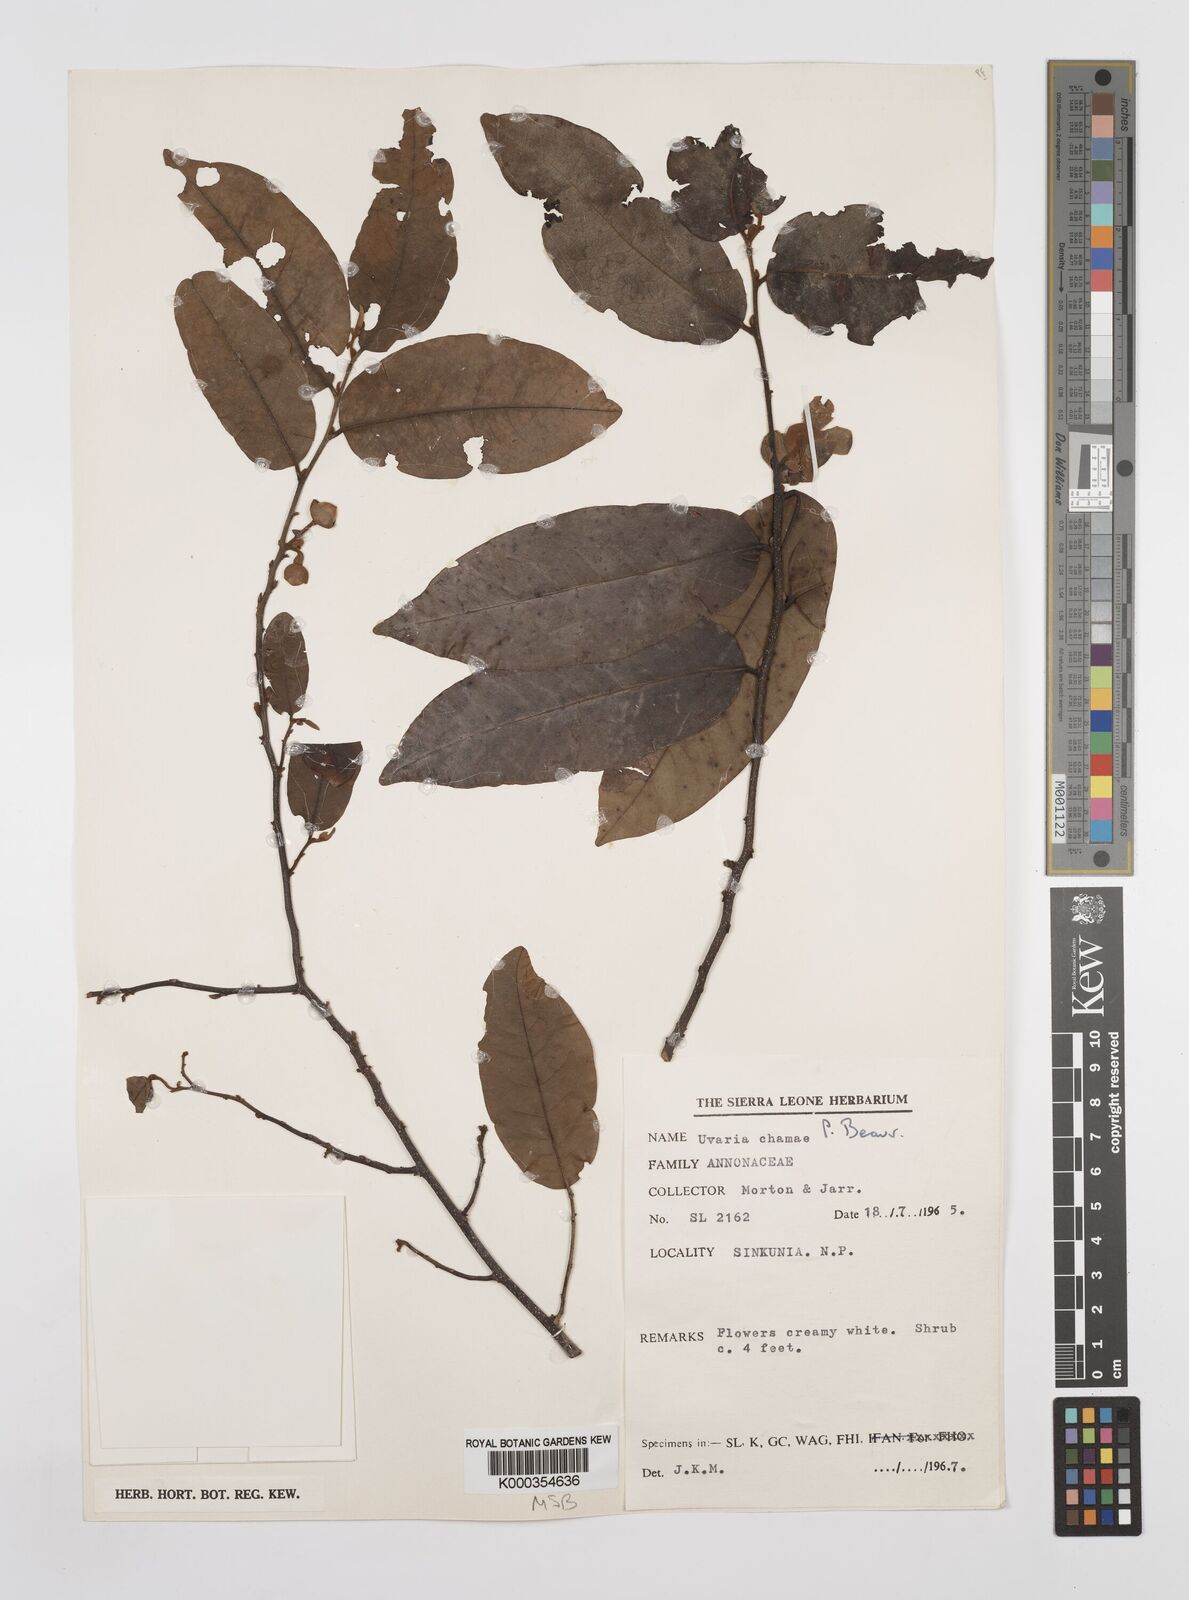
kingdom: Plantae
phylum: Tracheophyta
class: Magnoliopsida
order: Magnoliales
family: Annonaceae
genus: Uvaria
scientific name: Uvaria chamae
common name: Finger-root
